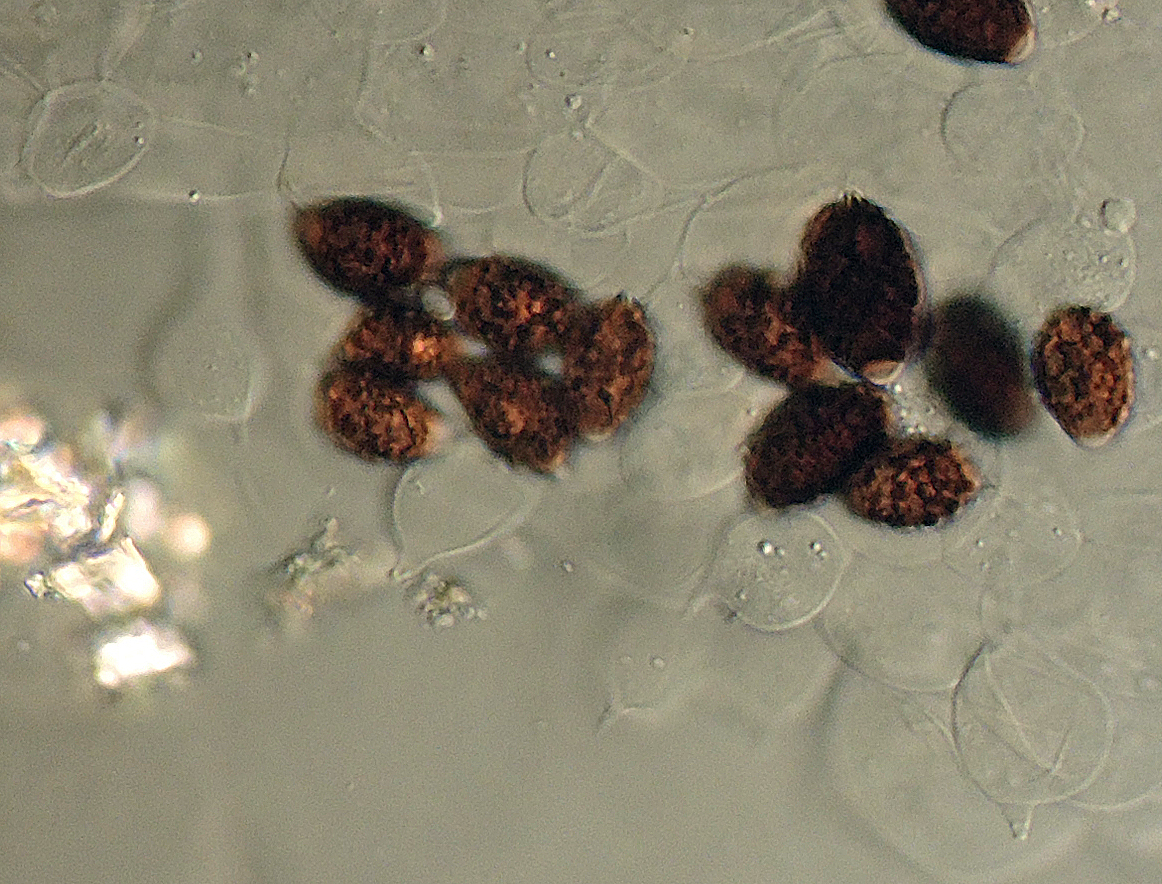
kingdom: Fungi
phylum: Basidiomycota
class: Agaricomycetes
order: Agaricales
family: Psathyrellaceae
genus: Coprinellus
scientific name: Coprinellus verrucispermus
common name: vortesporet blækhat
